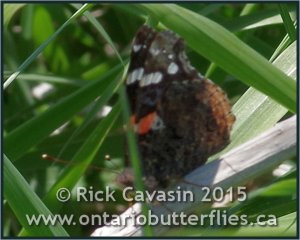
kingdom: Animalia
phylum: Arthropoda
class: Insecta
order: Lepidoptera
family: Nymphalidae
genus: Vanessa
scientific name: Vanessa atalanta
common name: Red Admiral
